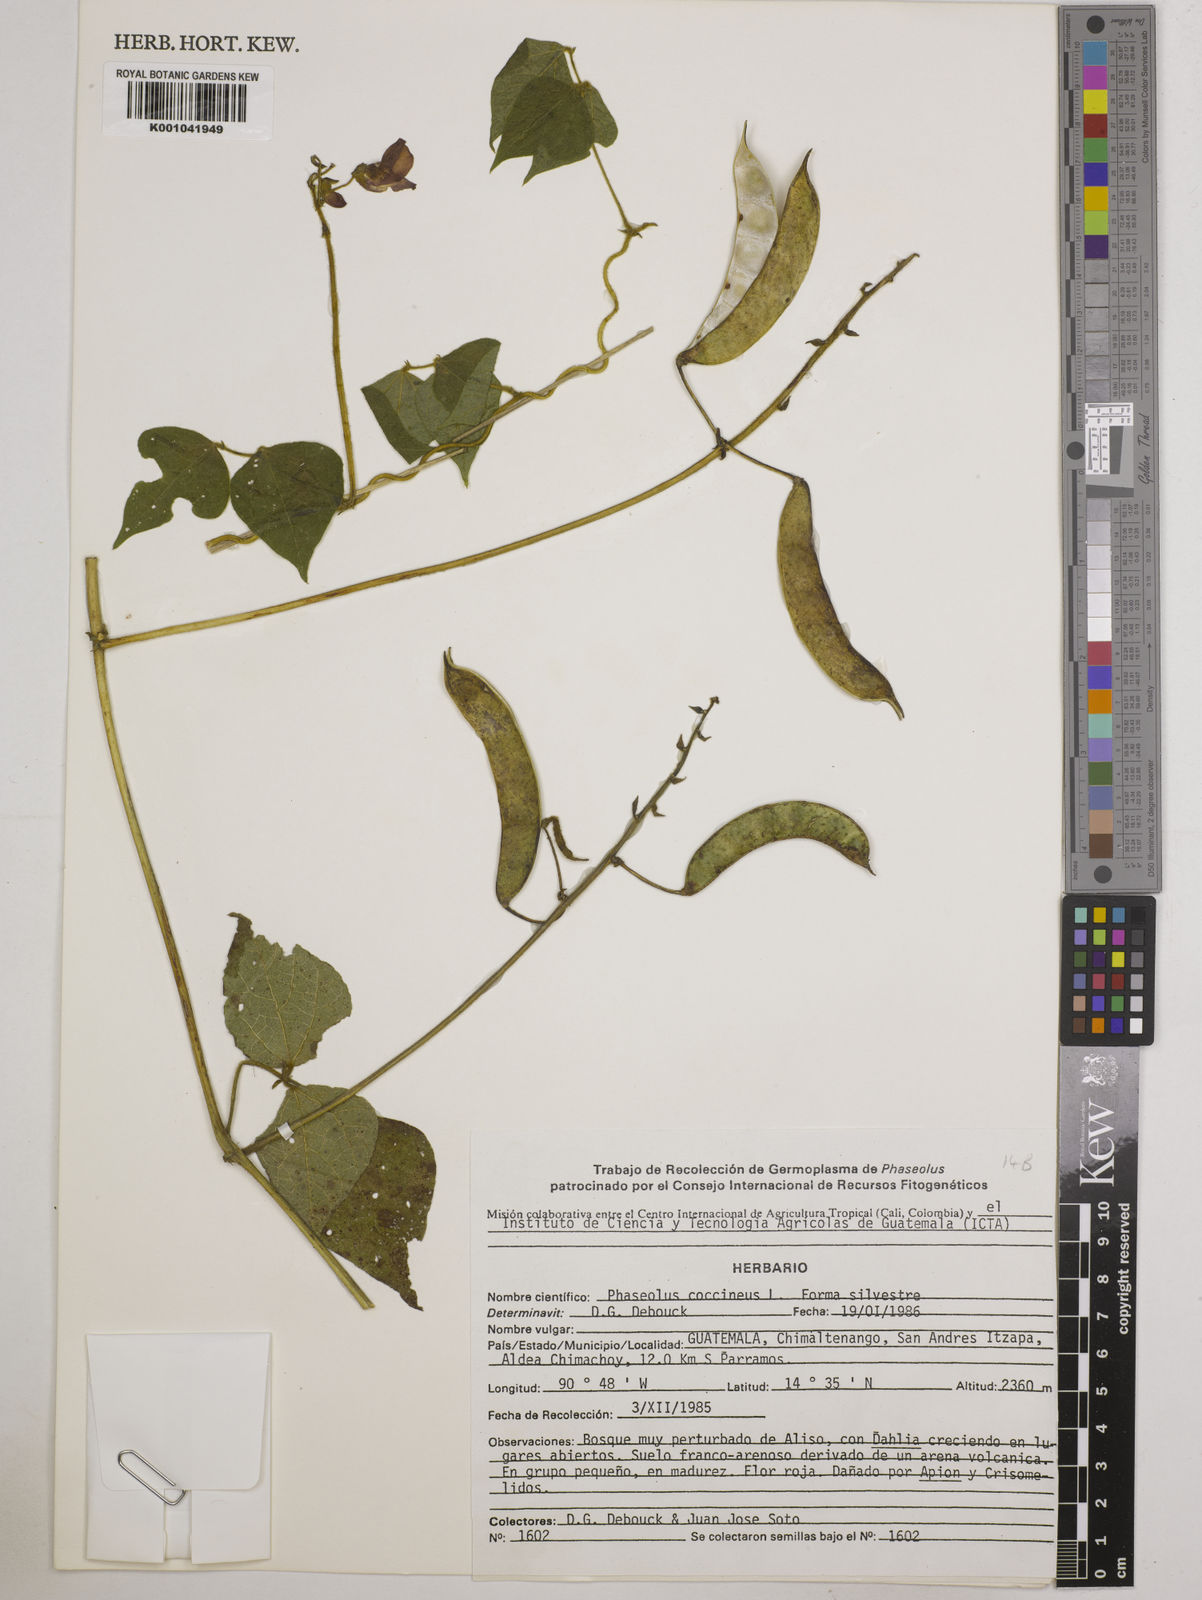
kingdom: Plantae
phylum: Tracheophyta
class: Magnoliopsida
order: Fabales
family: Fabaceae
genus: Phaseolus
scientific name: Phaseolus coccineus
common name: Runner bean
